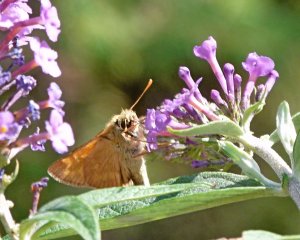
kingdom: Animalia
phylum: Arthropoda
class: Insecta
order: Lepidoptera
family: Hesperiidae
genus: Ochlodes
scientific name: Ochlodes sylvanoides
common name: Woodland Skipper
